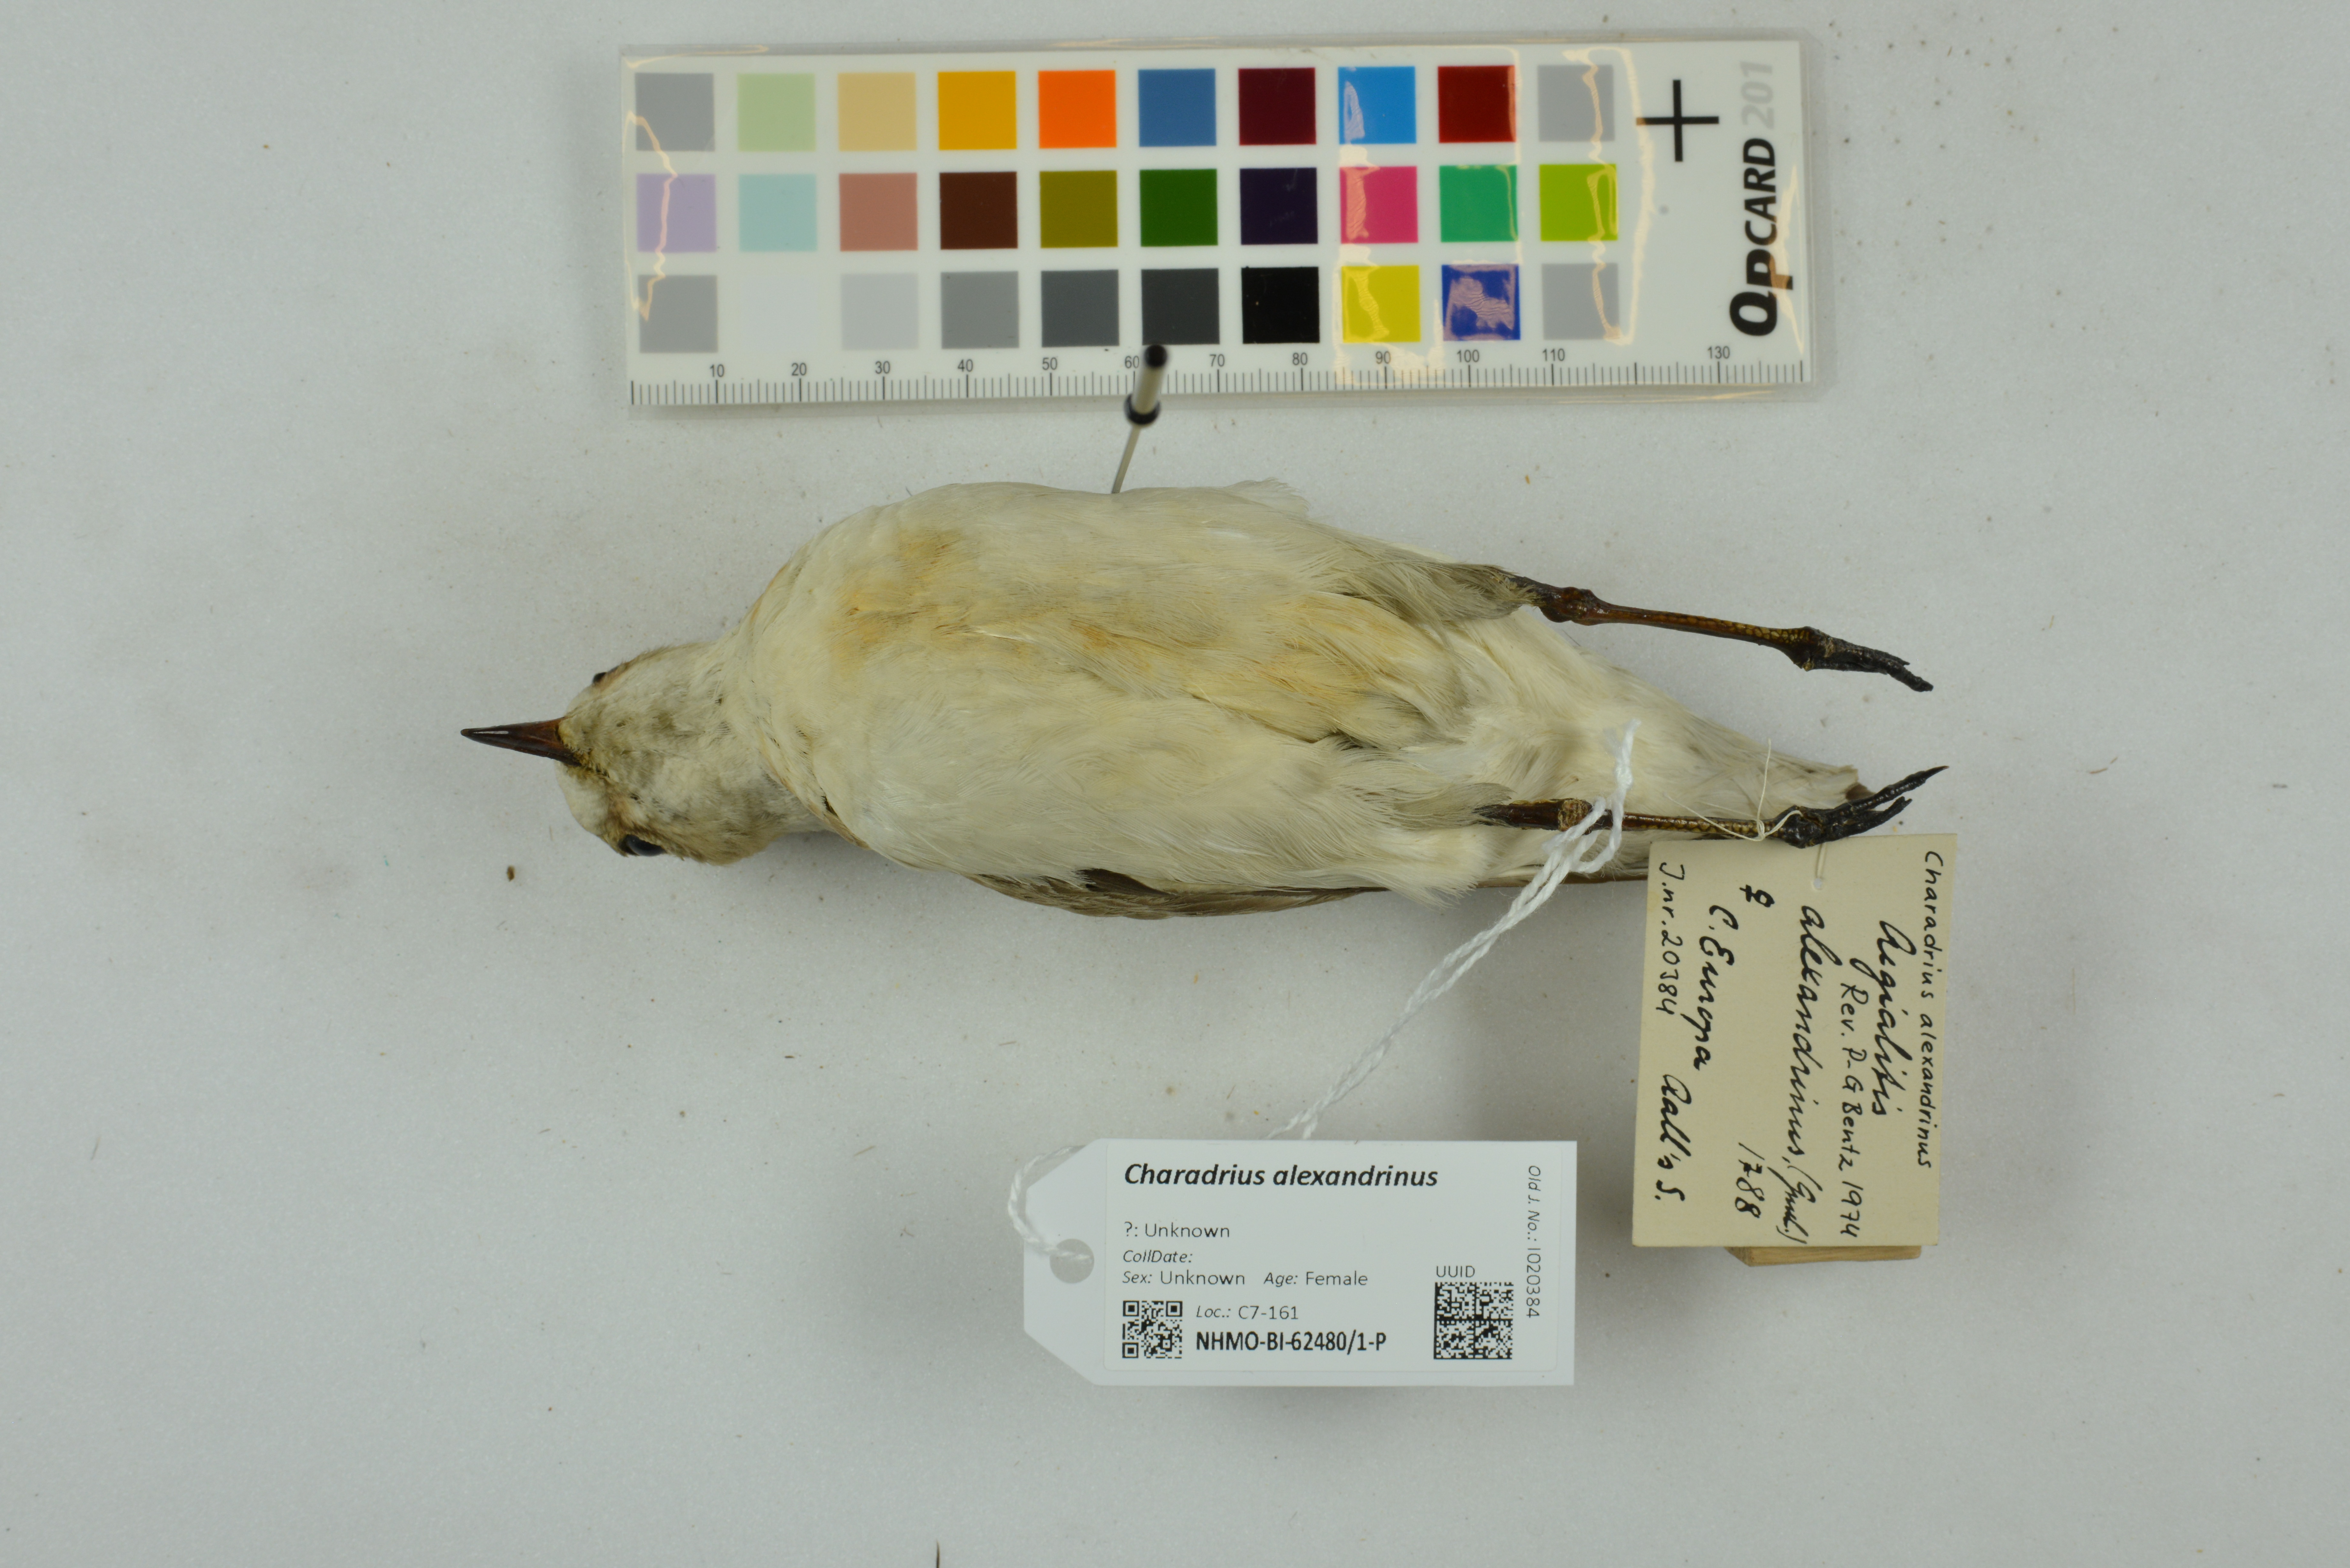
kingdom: Animalia
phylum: Chordata
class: Aves
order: Charadriiformes
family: Charadriidae
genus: Charadrius
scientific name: Charadrius alexandrinus
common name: Kentish plover
